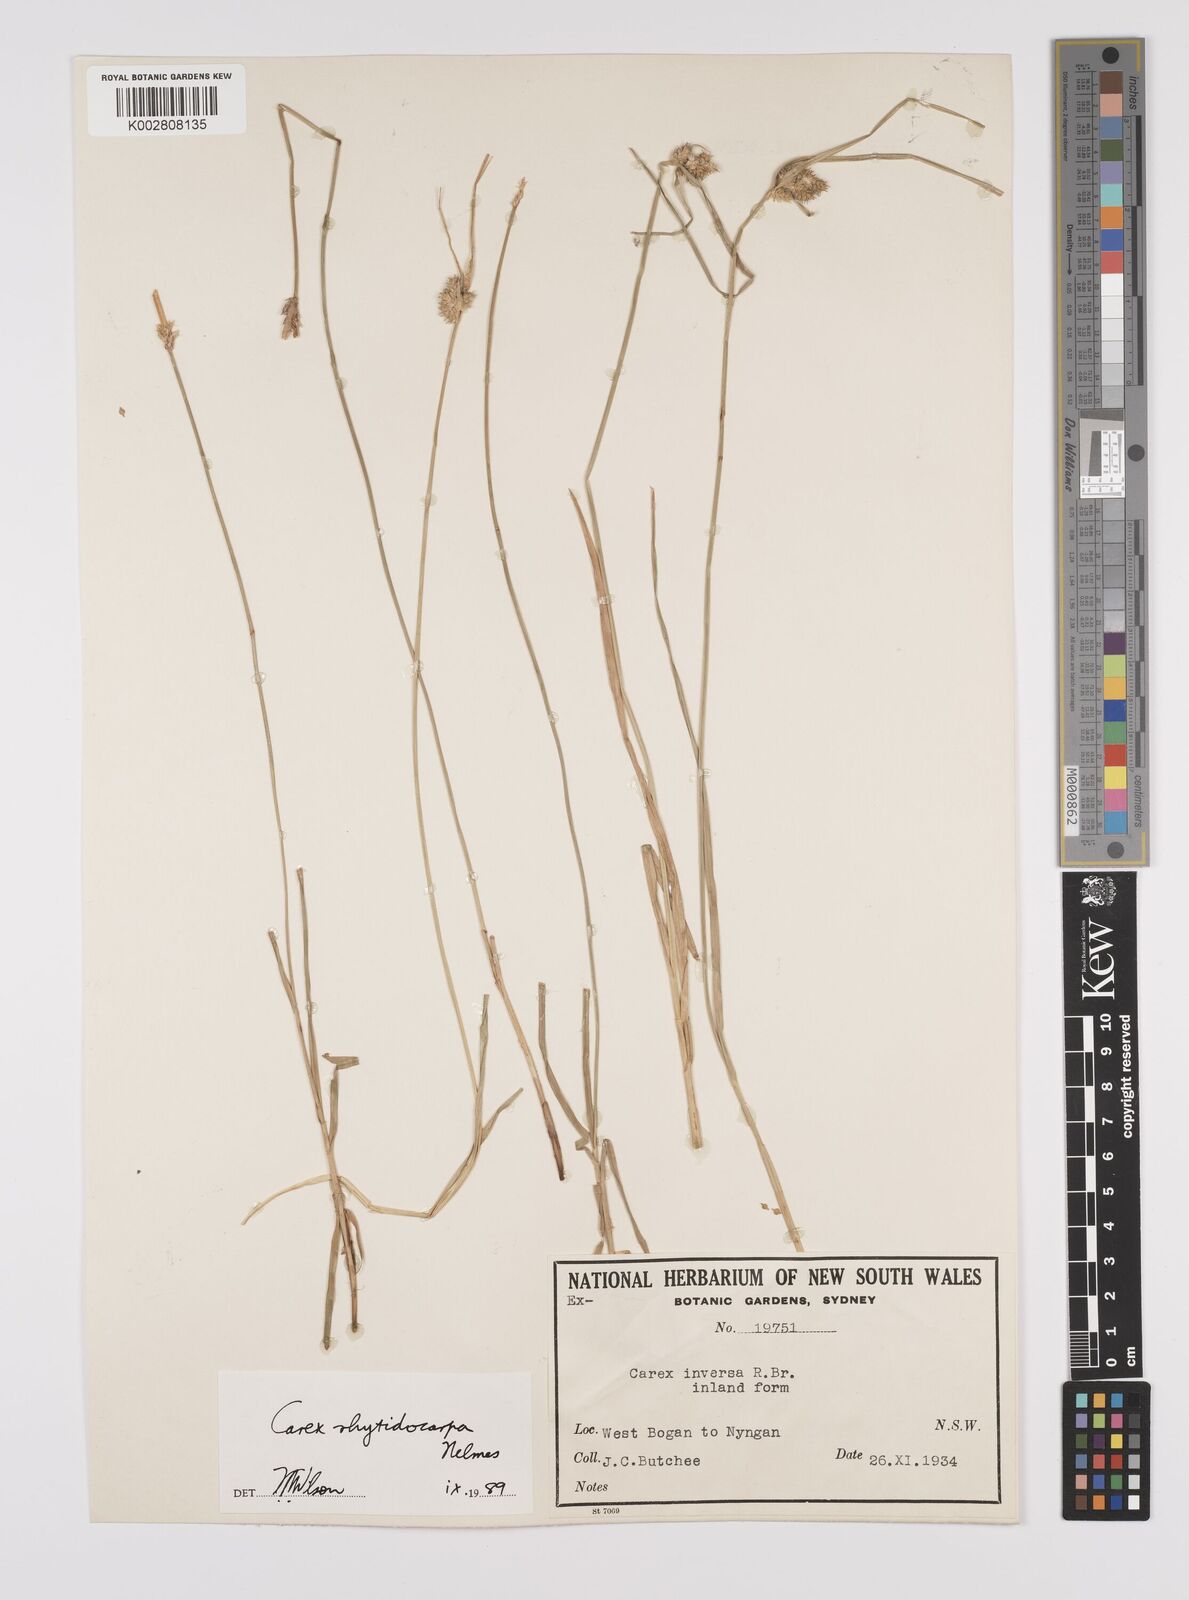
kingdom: Plantae
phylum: Tracheophyta
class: Liliopsida
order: Poales
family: Cyperaceae
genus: Carex
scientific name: Carex inversa
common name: Knob sedge
